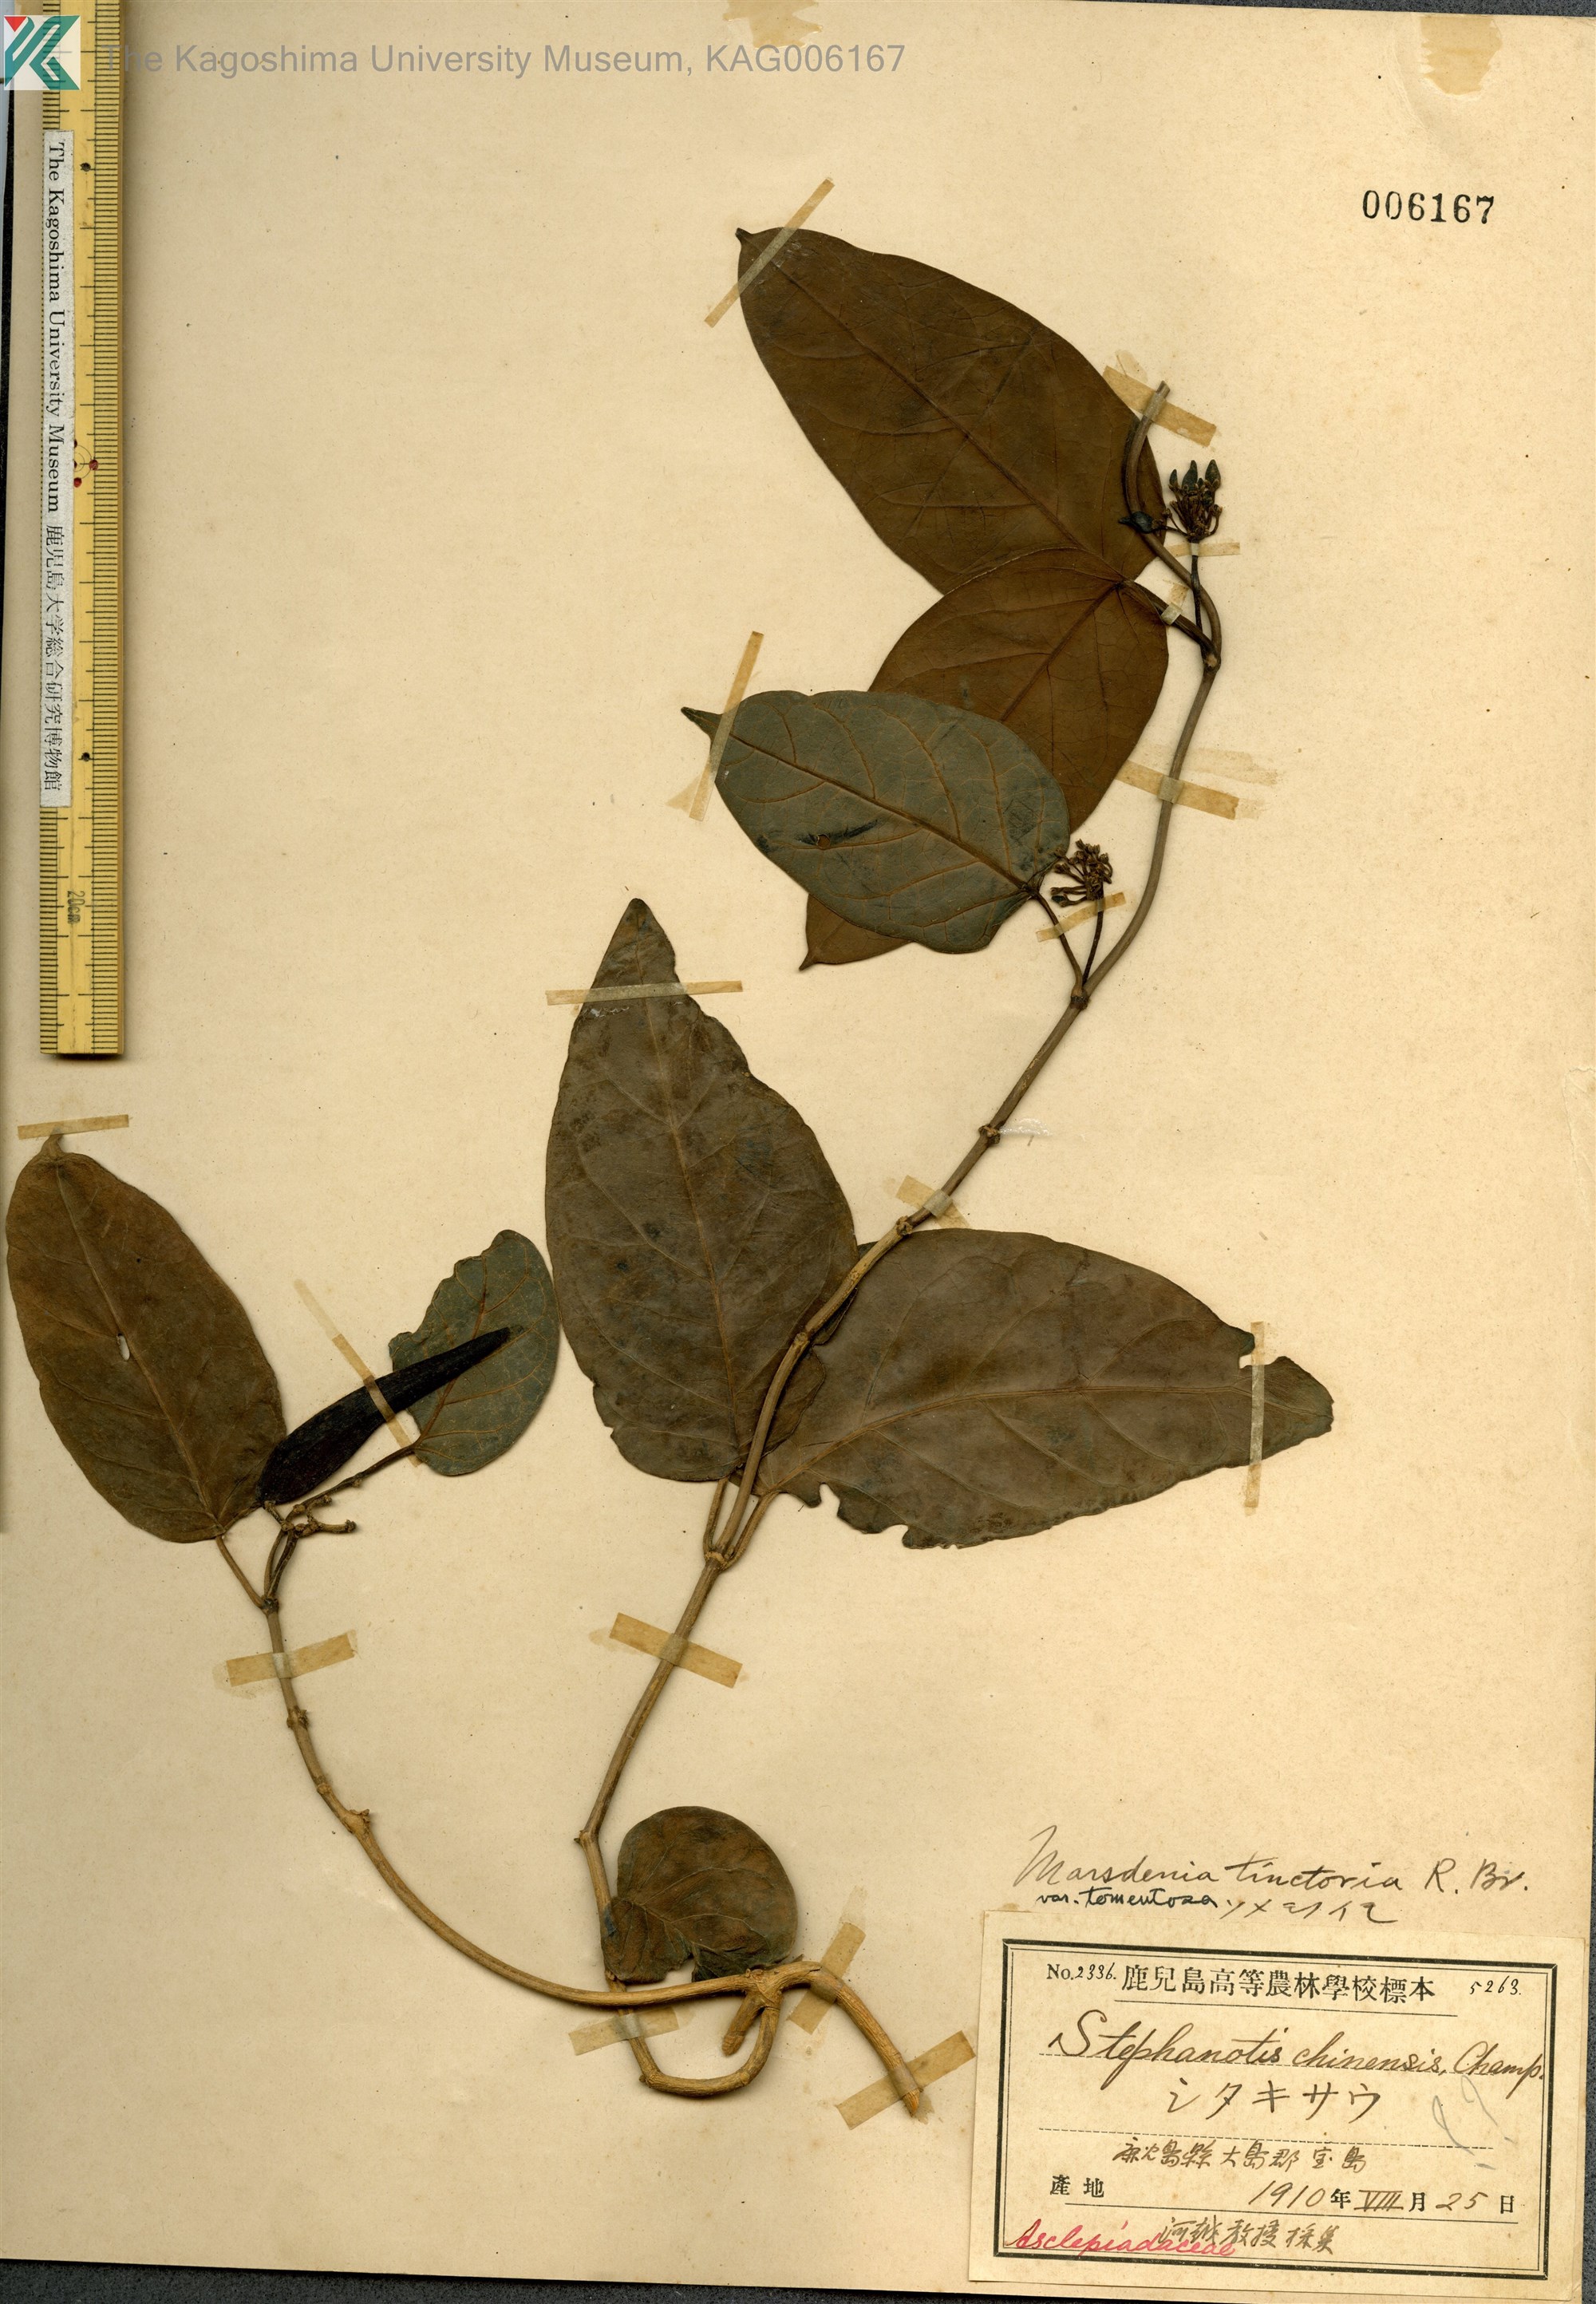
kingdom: Plantae
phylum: Tracheophyta
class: Magnoliopsida
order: Gentianales
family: Apocynaceae
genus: Marsdenia
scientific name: Marsdenia tinctoria
